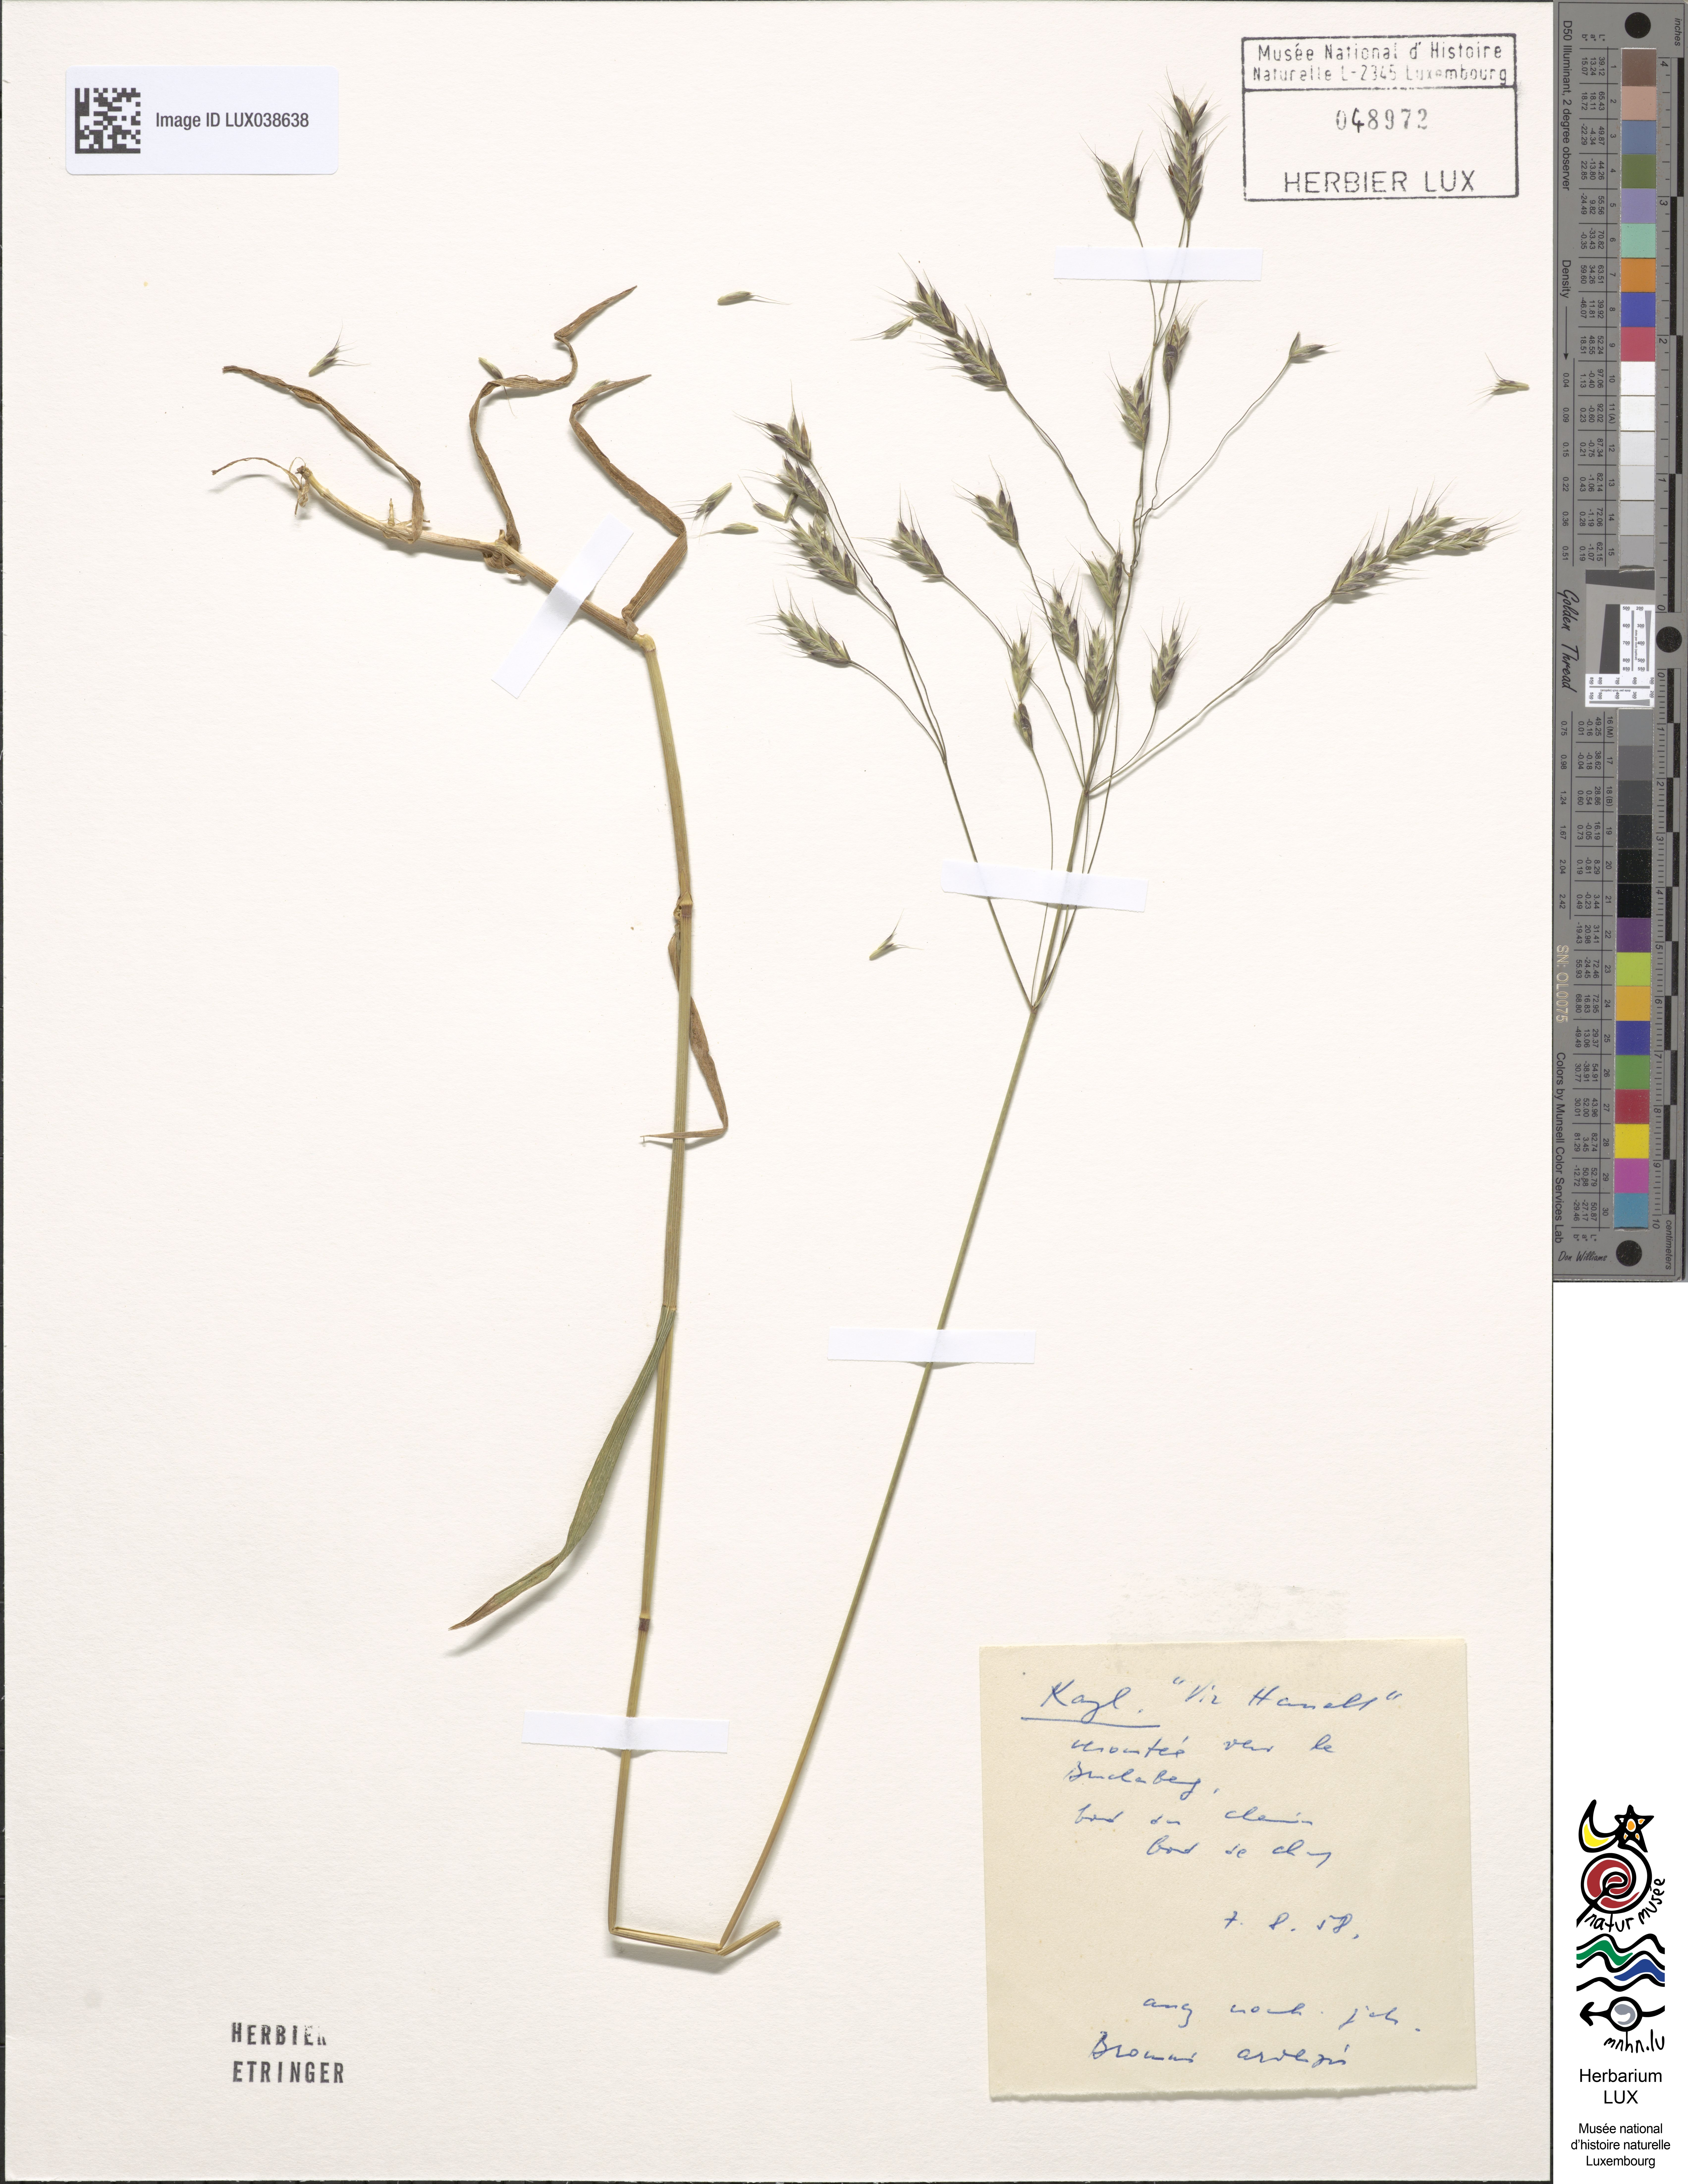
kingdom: Plantae
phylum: Tracheophyta
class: Liliopsida
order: Poales
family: Poaceae
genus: Bromus
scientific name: Bromus arvensis
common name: Field brome
